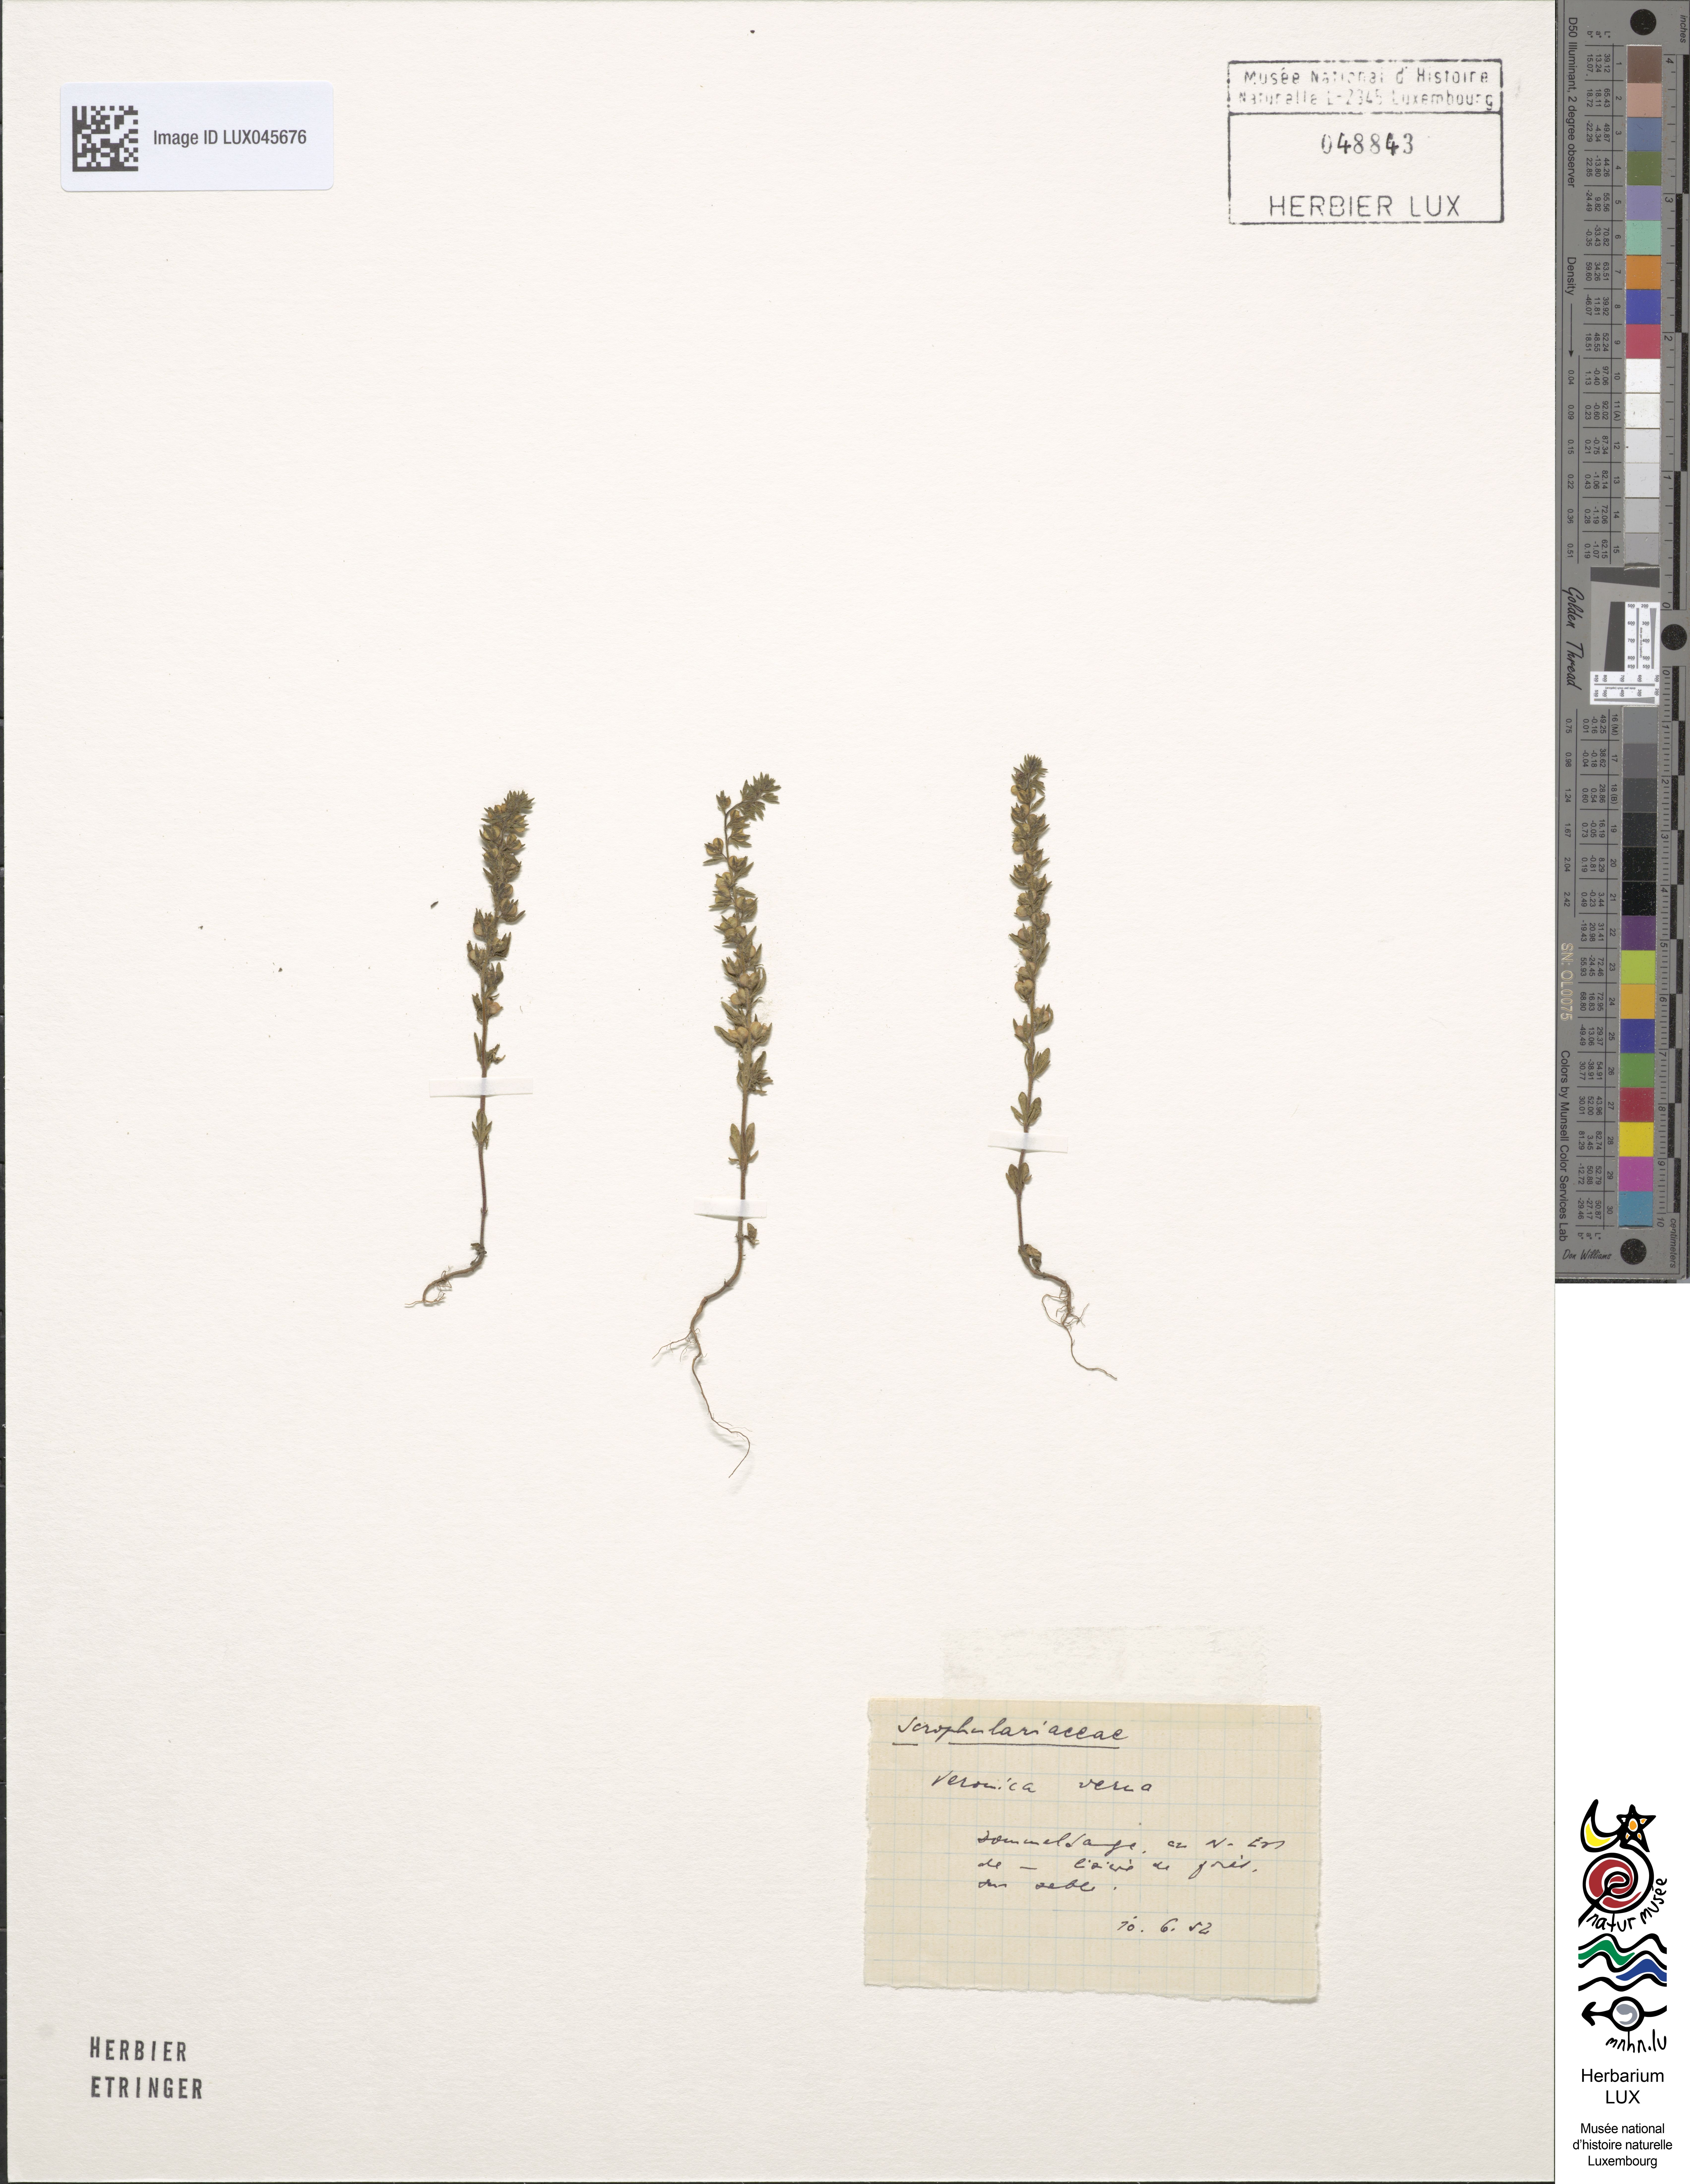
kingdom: Plantae
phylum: Tracheophyta
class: Magnoliopsida
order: Lamiales
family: Plantaginaceae
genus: Veronica
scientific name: Veronica verna
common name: Spring speedwell
